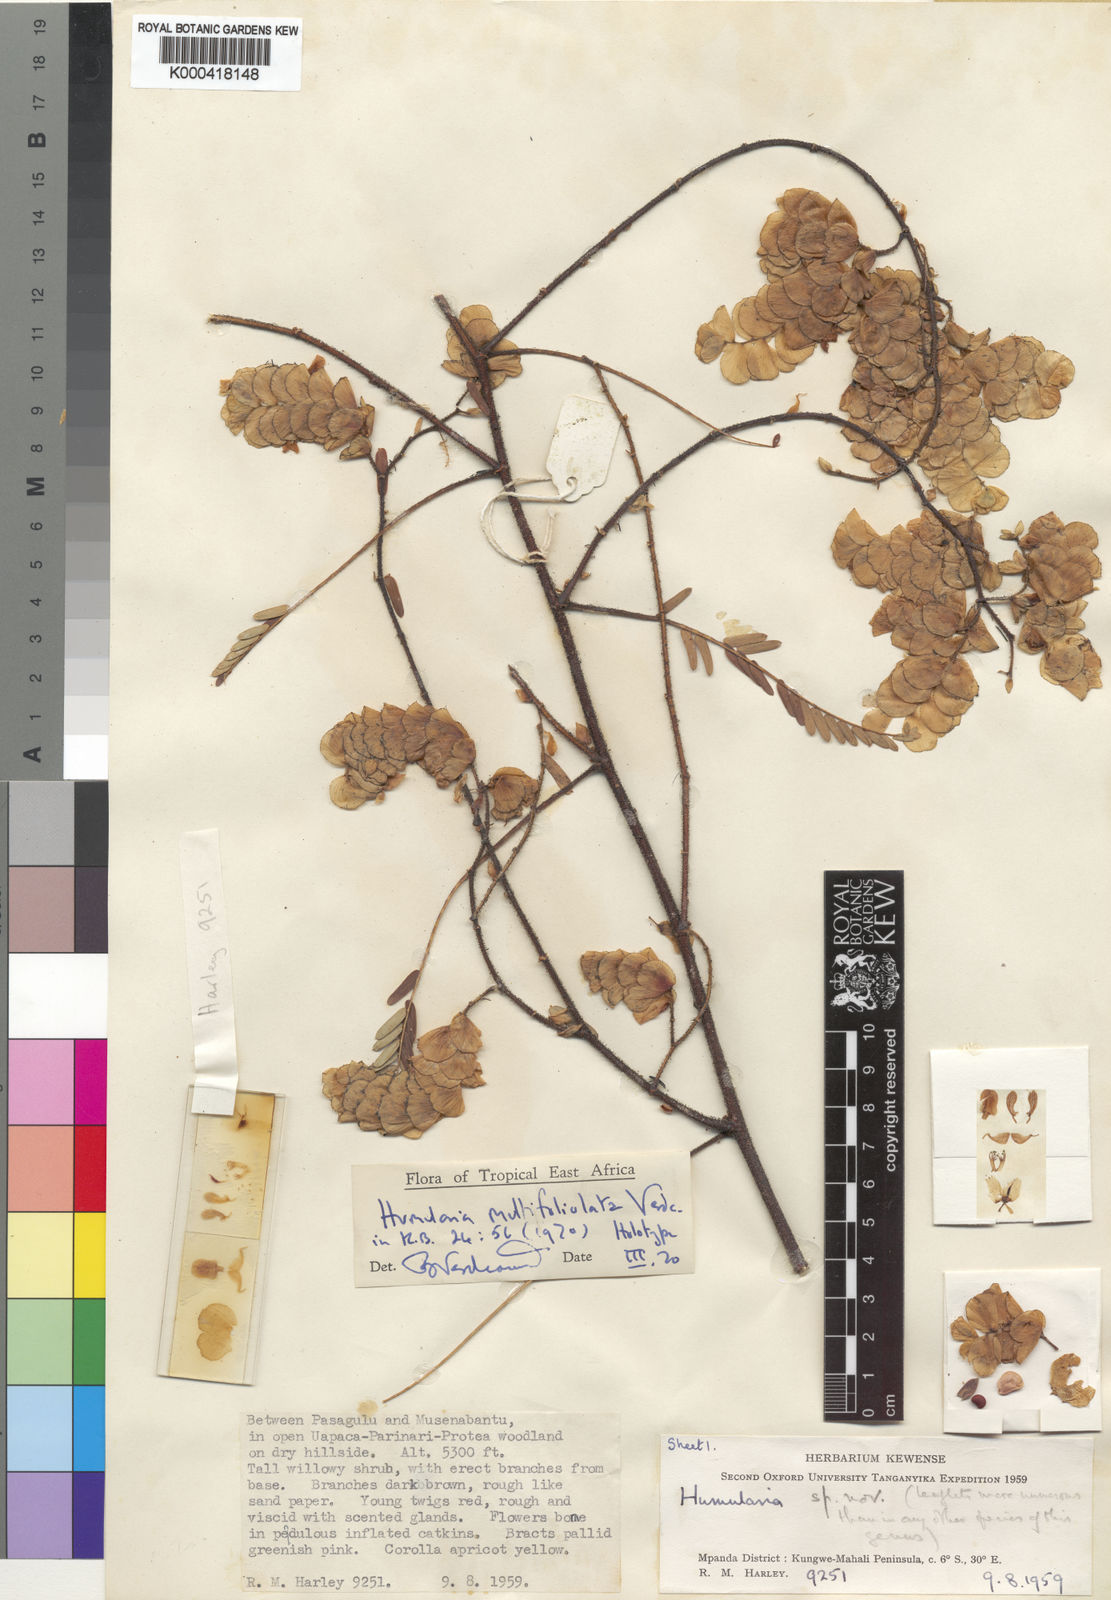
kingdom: Plantae
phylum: Tracheophyta
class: Magnoliopsida
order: Fabales
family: Fabaceae
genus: Humularia
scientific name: Humularia multifoliolata
